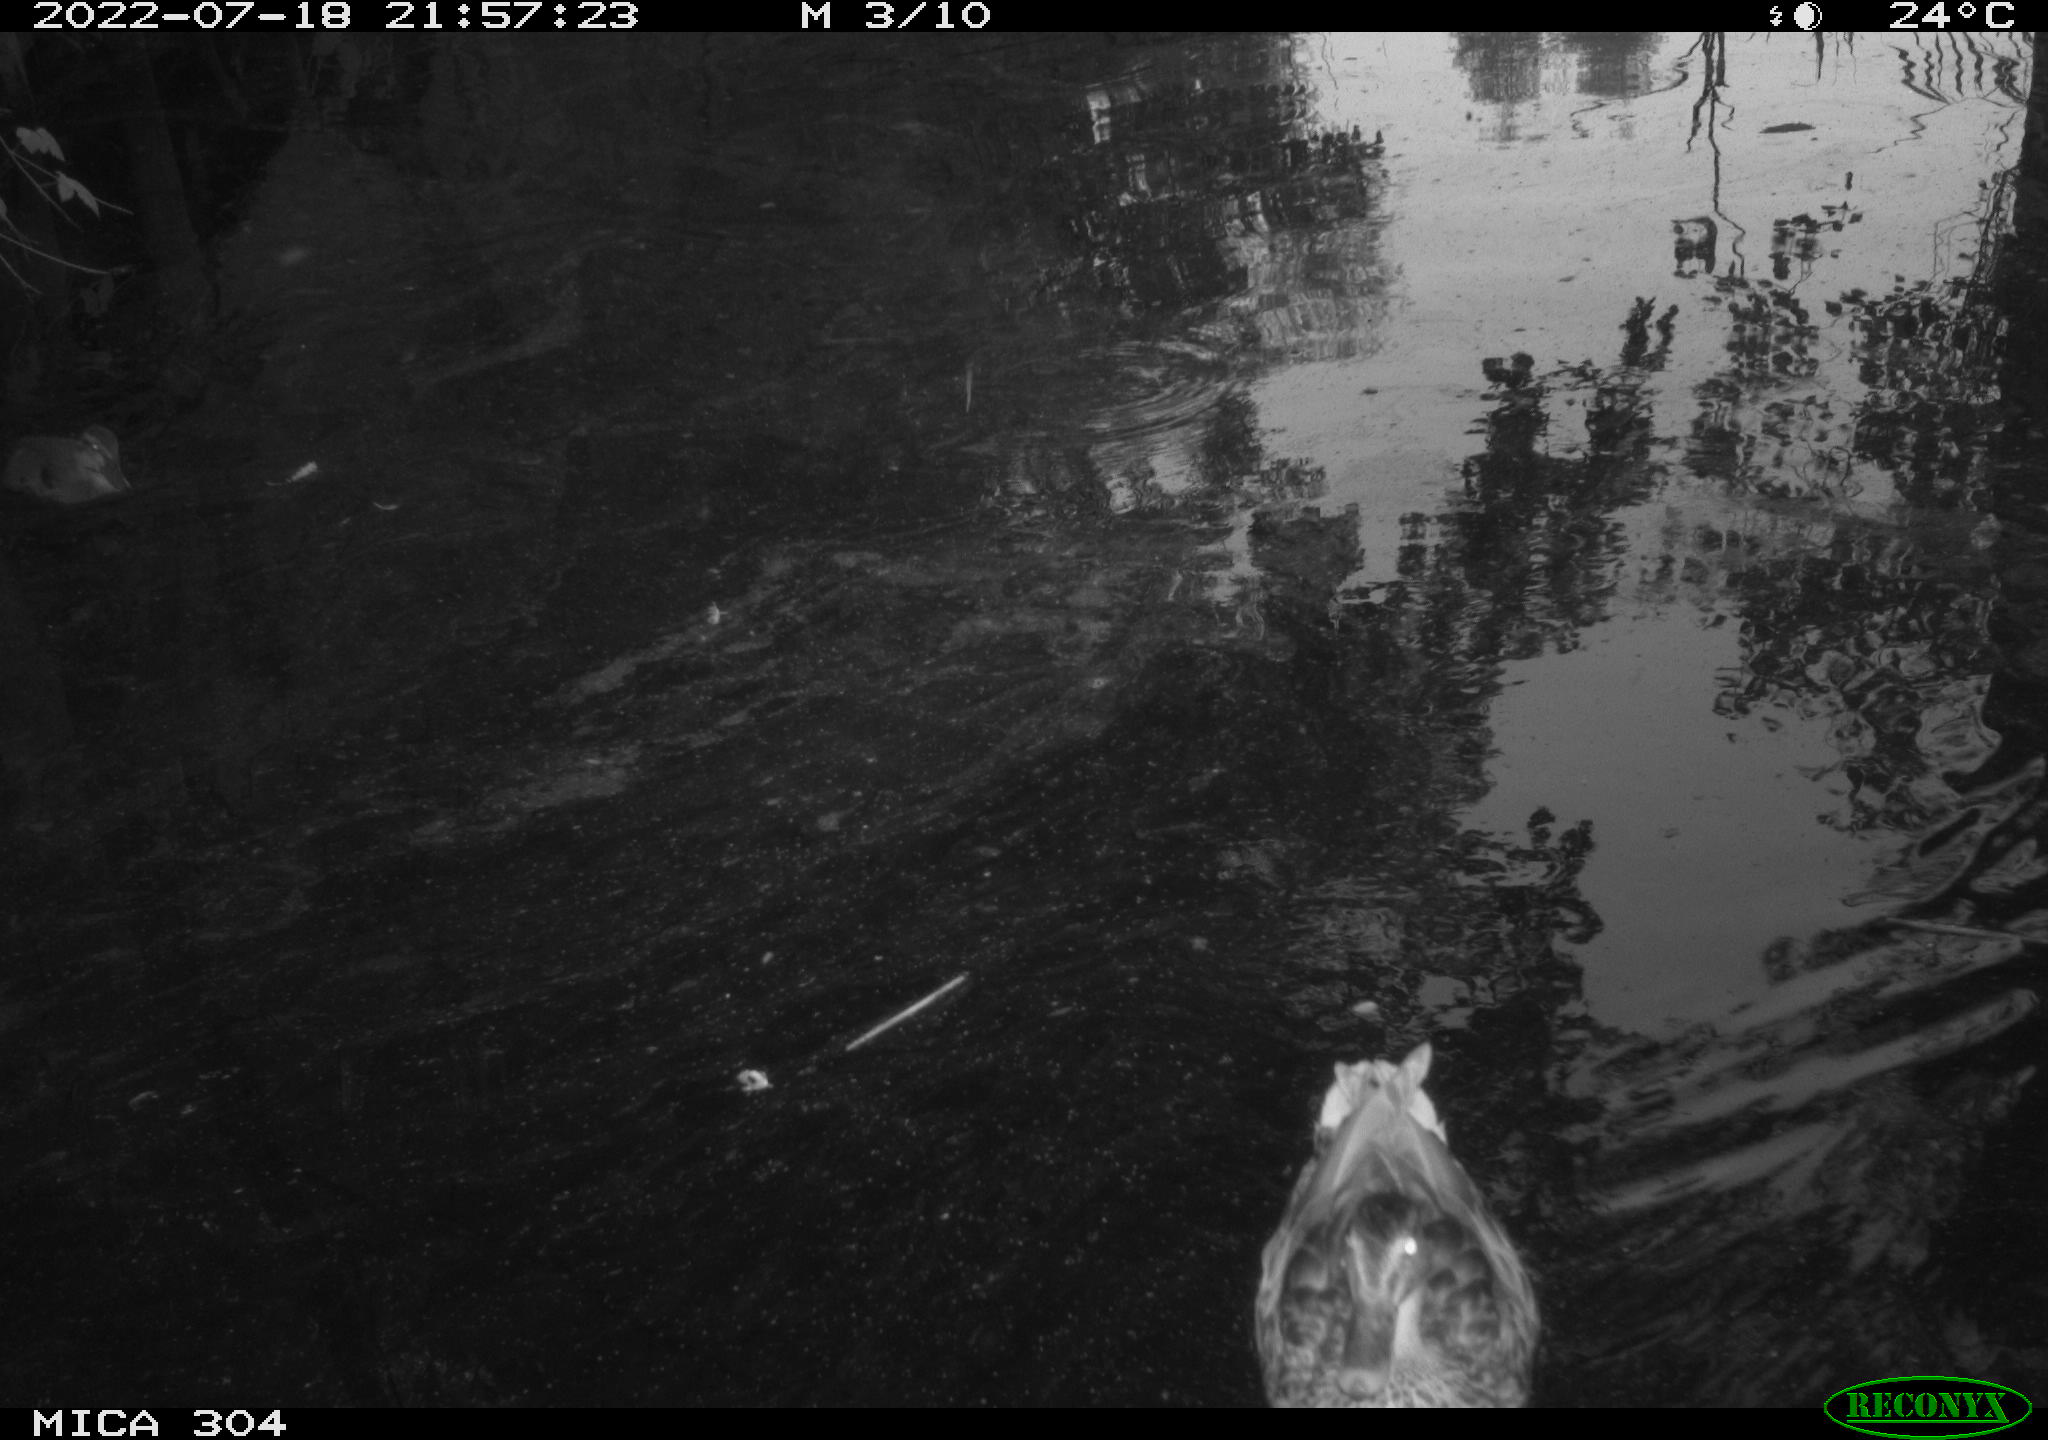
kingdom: Animalia
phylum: Chordata
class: Aves
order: Anseriformes
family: Anatidae
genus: Anas
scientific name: Anas platyrhynchos
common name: Mallard
